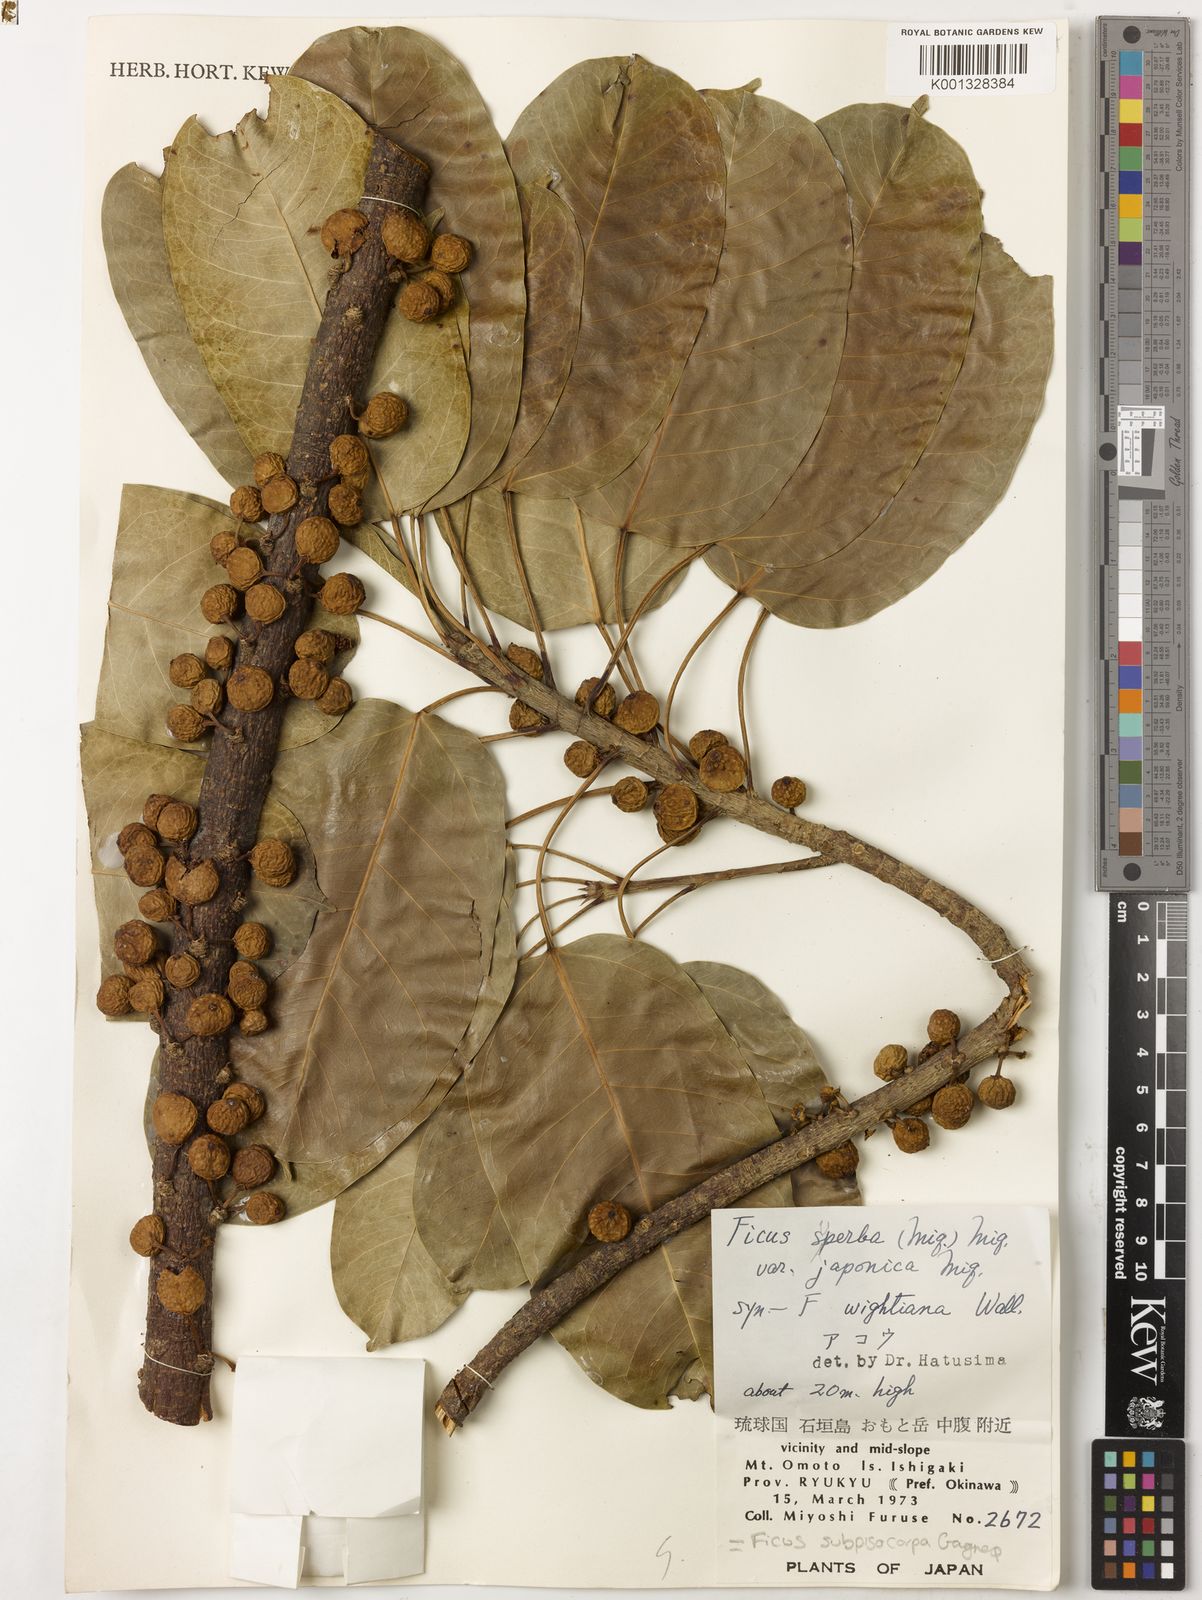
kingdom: Plantae
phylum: Tracheophyta
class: Magnoliopsida
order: Rosales
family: Moraceae
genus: Ficus
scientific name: Ficus subpisocarpa
